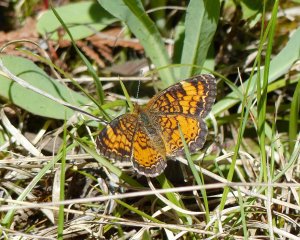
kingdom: Animalia
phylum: Arthropoda
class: Insecta
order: Lepidoptera
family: Nymphalidae
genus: Phyciodes
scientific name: Phyciodes tharos
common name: Northern Crescent
